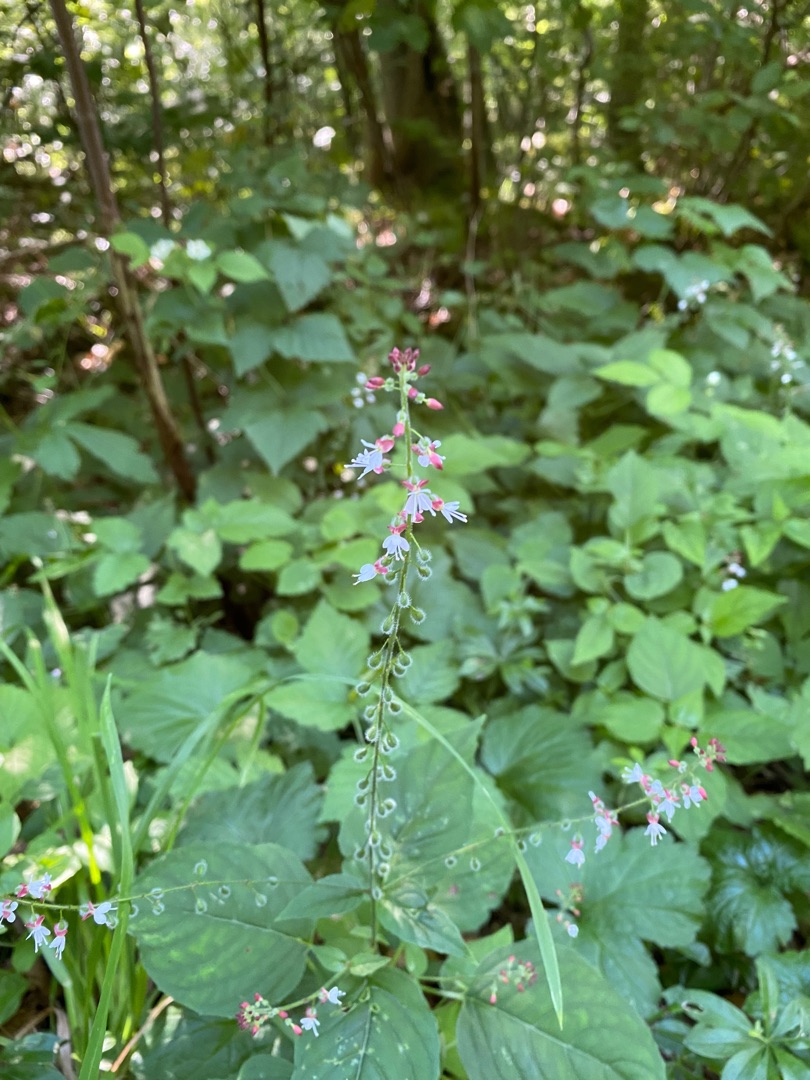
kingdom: Plantae
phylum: Tracheophyta
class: Magnoliopsida
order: Myrtales
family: Onagraceae
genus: Circaea
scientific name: Circaea lutetiana
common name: Dunet steffensurt
